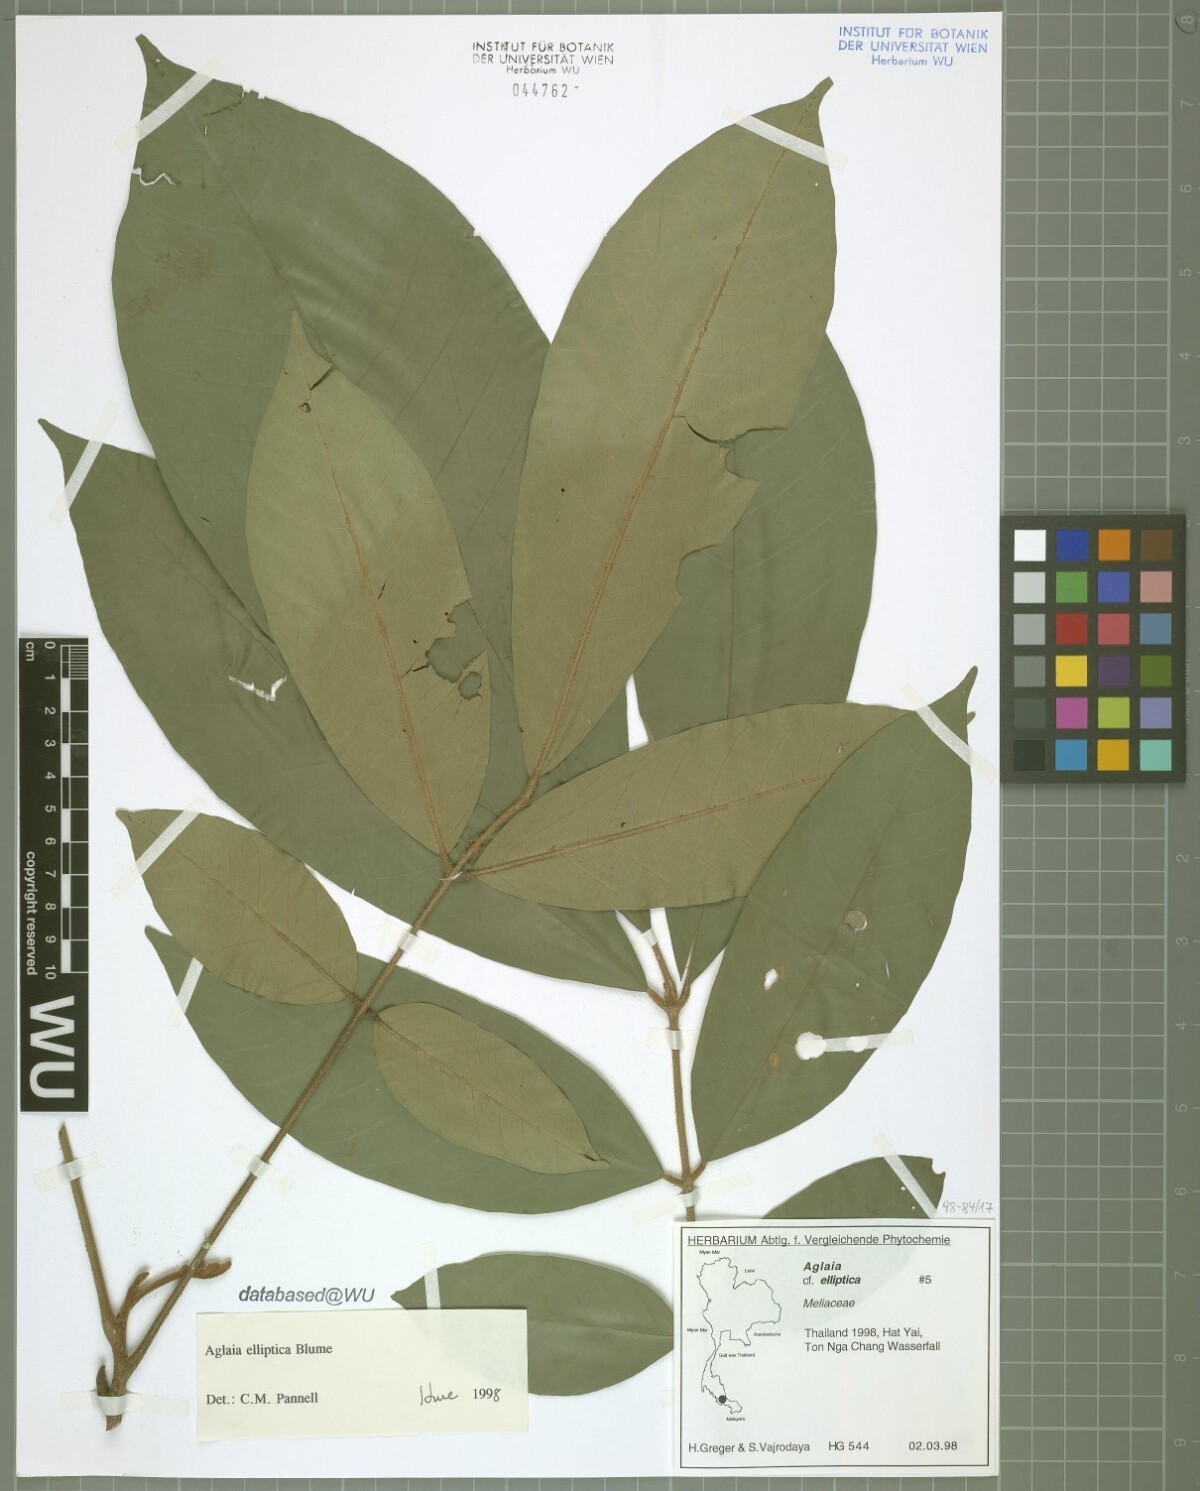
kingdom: Plantae
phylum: Tracheophyta
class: Magnoliopsida
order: Sapindales
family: Meliaceae
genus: Aglaia
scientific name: Aglaia elliptica
